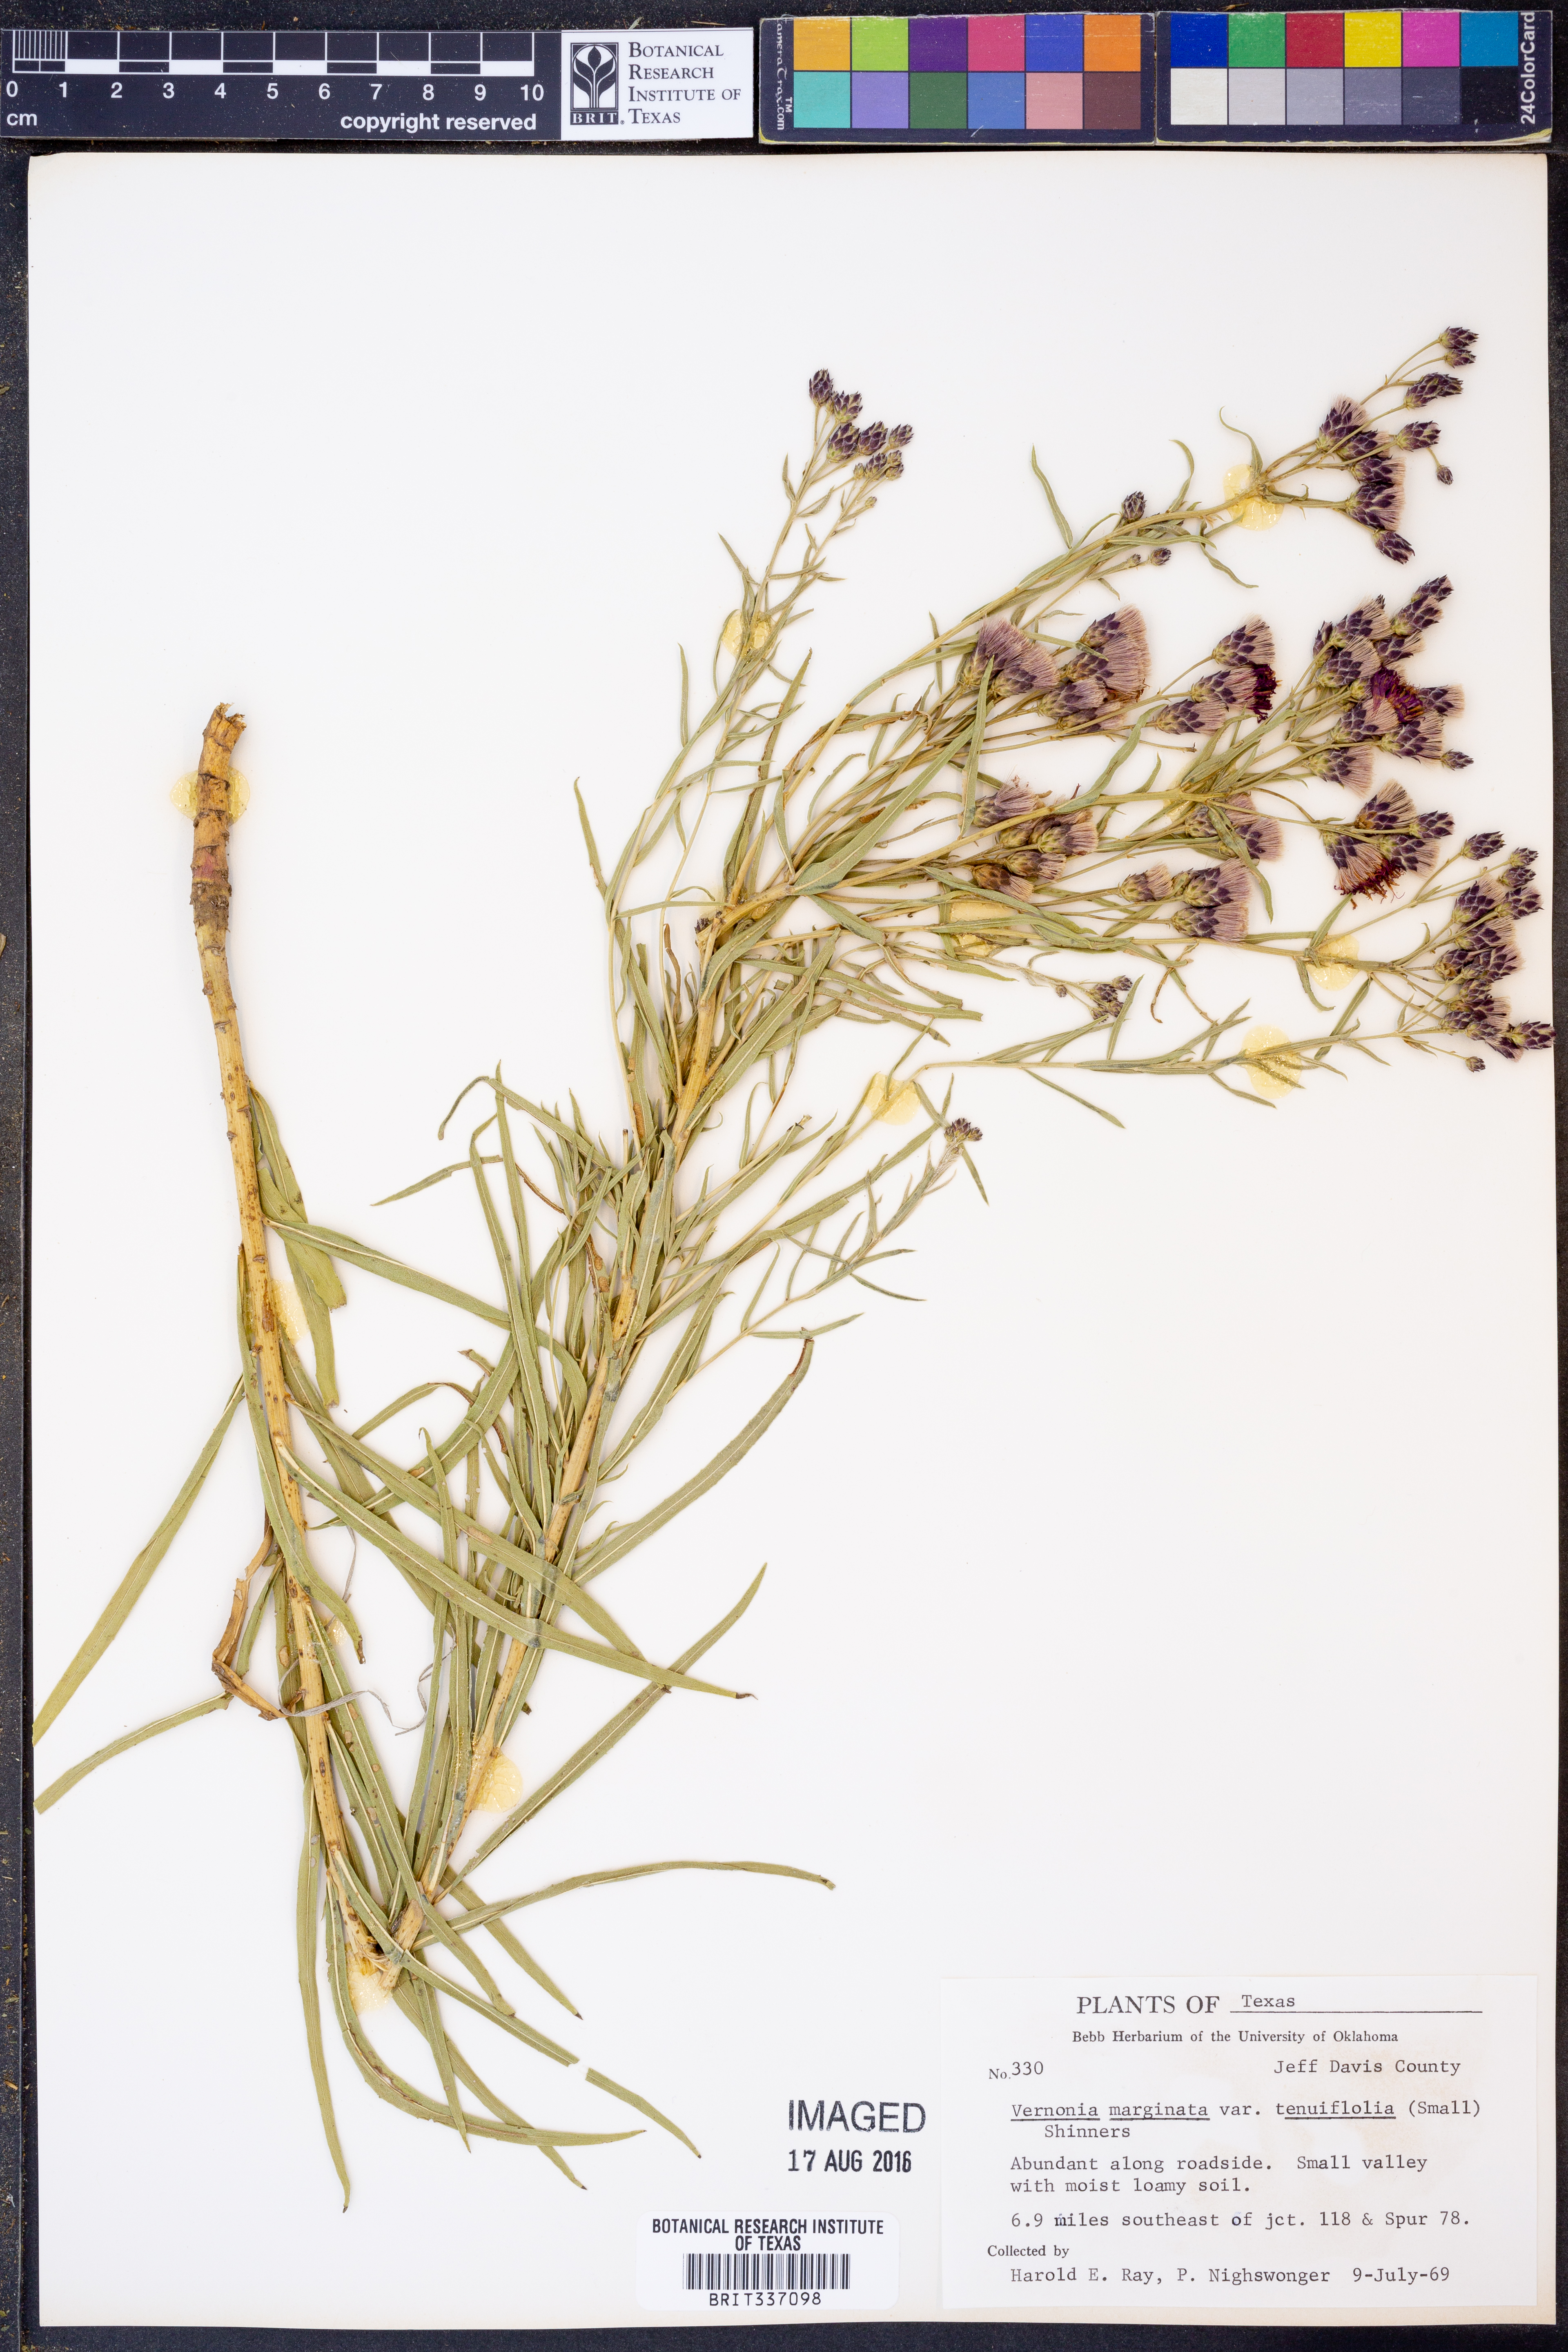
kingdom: Plantae
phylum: Tracheophyta
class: Magnoliopsida
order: Asterales
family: Asteraceae
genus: Vernonia
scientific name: Vernonia marginata
